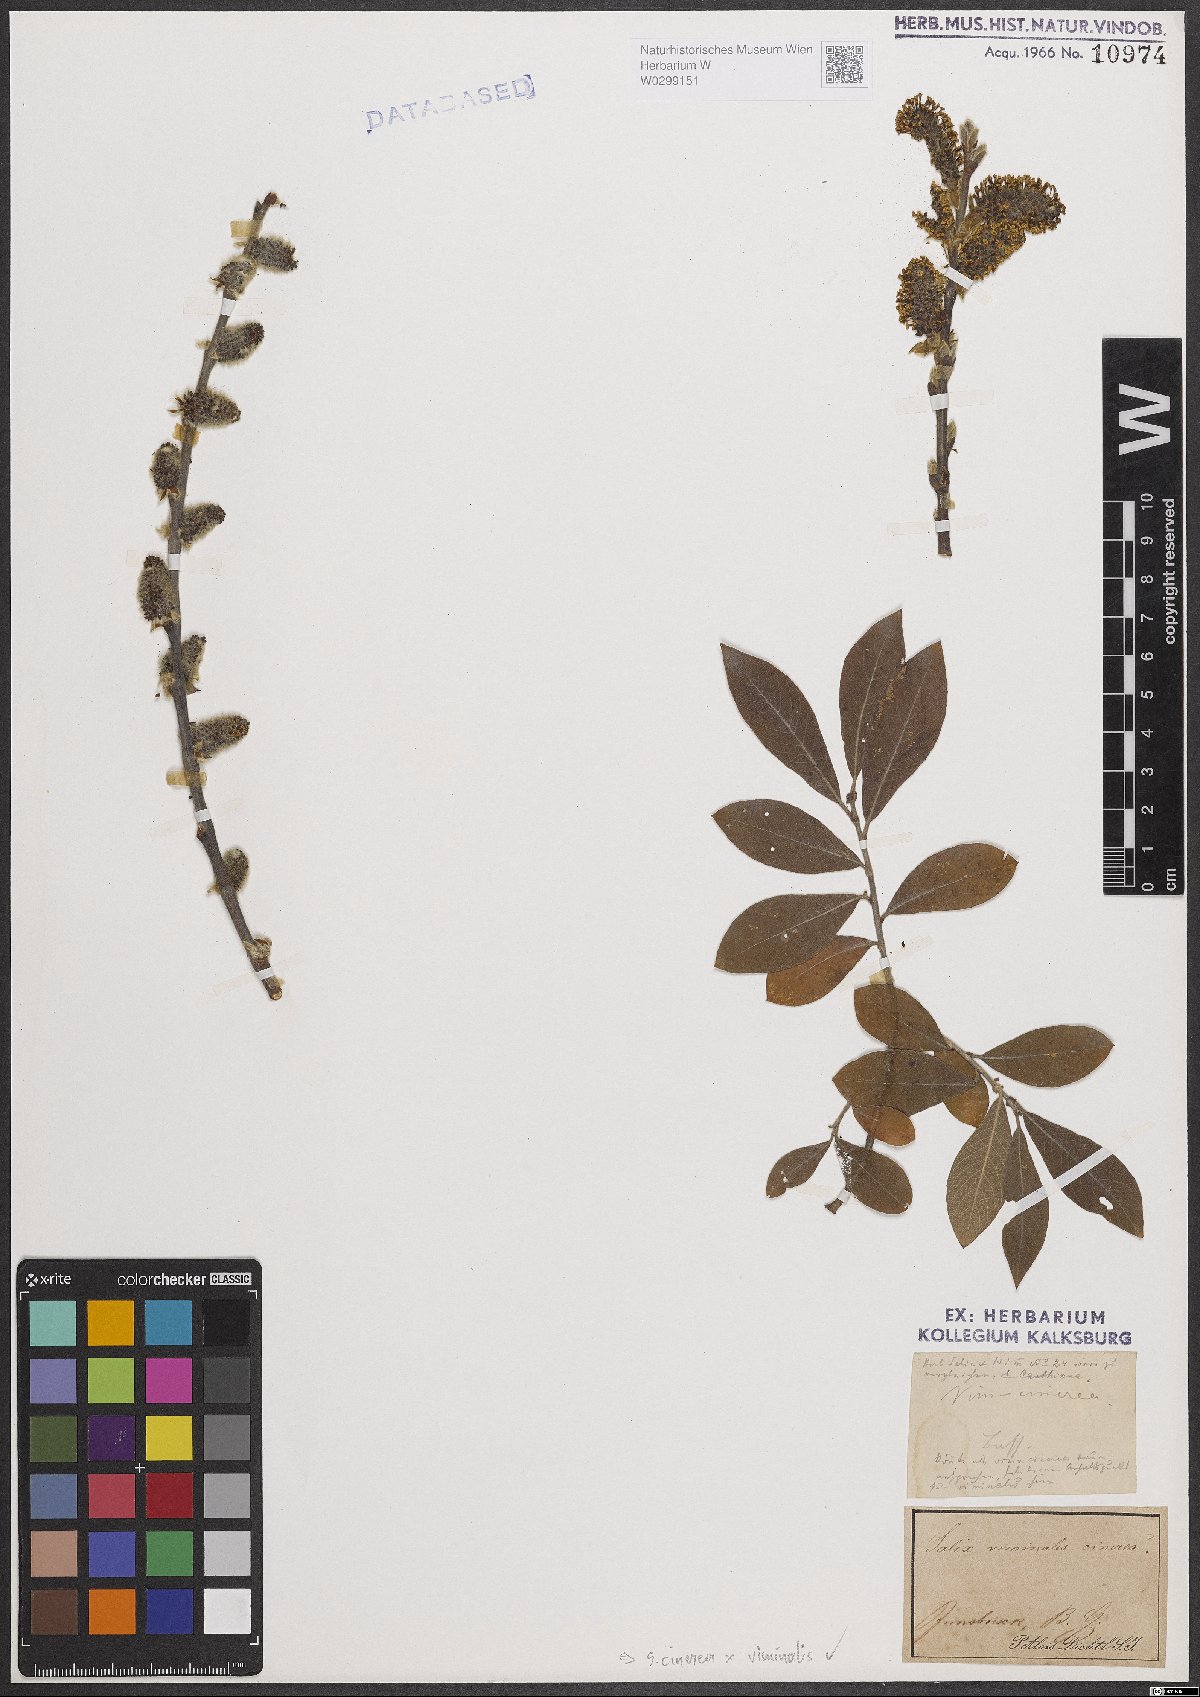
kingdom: Plantae
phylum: Tracheophyta
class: Magnoliopsida
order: Malpighiales
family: Salicaceae
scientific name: Salicaceae
